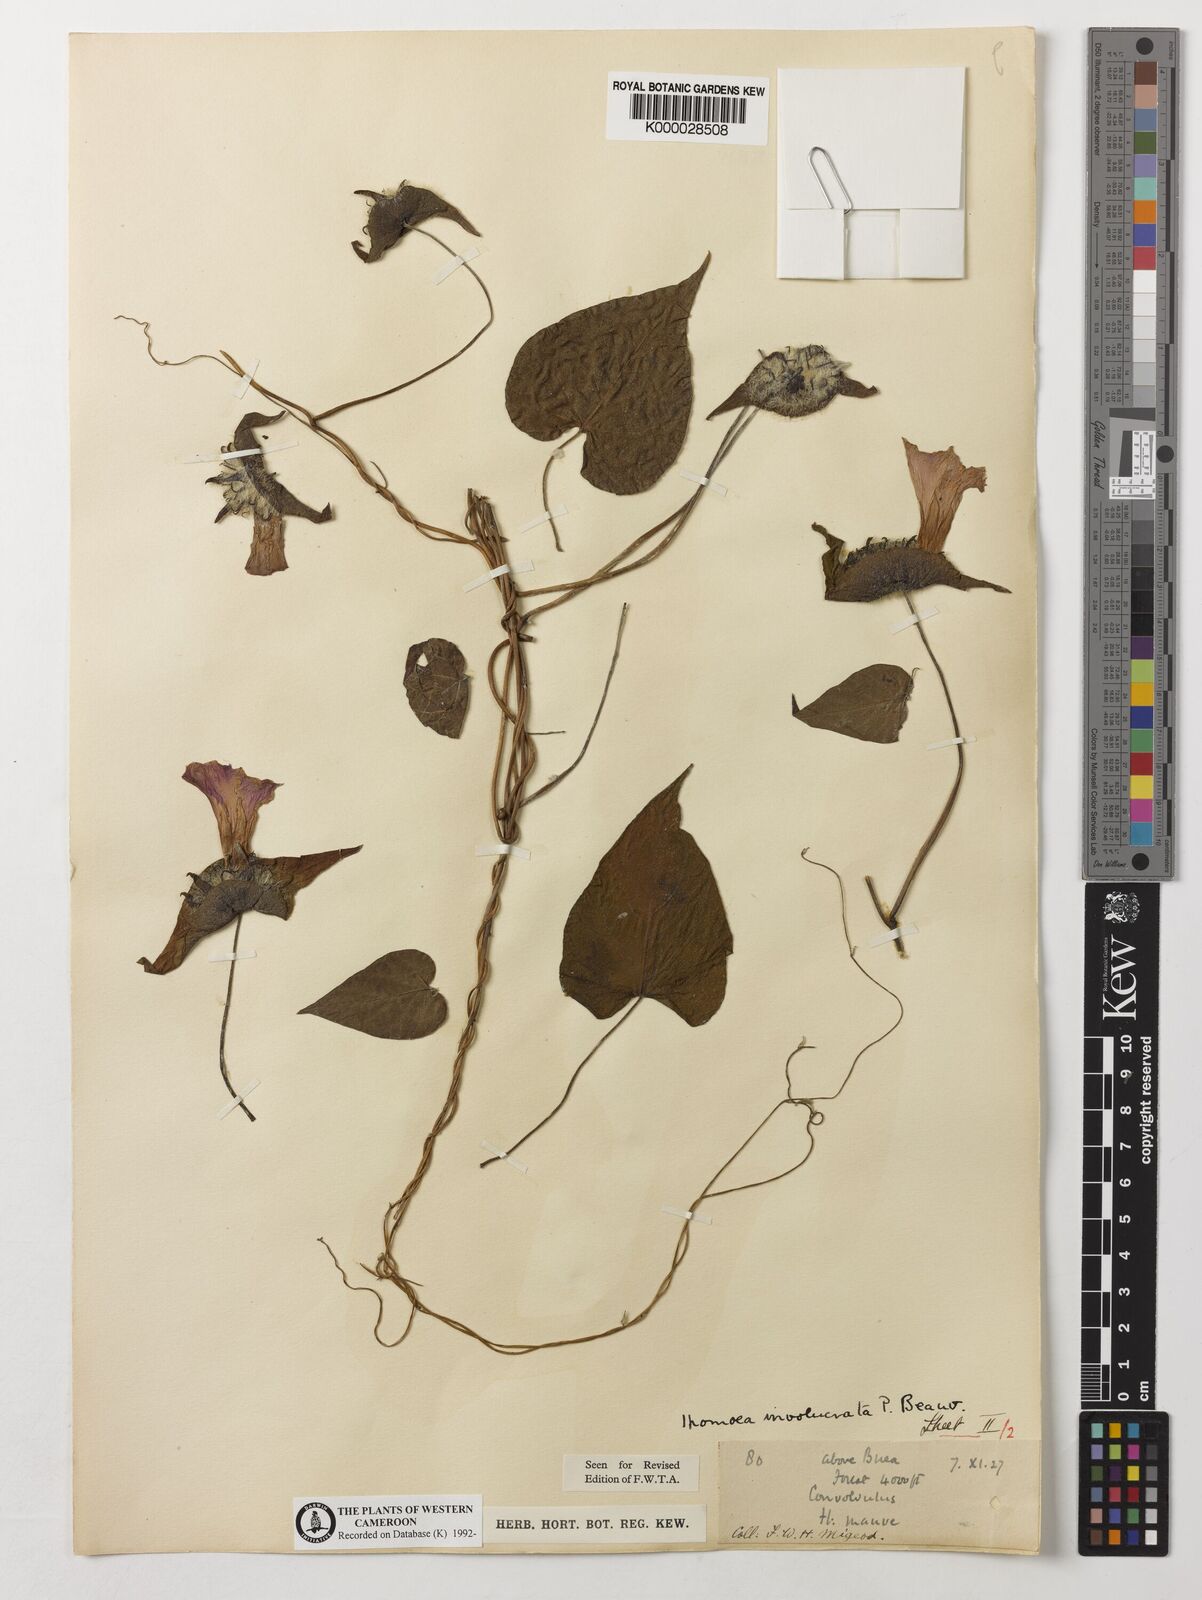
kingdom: Plantae
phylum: Tracheophyta
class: Magnoliopsida
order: Solanales
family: Convolvulaceae
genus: Ipomoea
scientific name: Ipomoea involucrata
